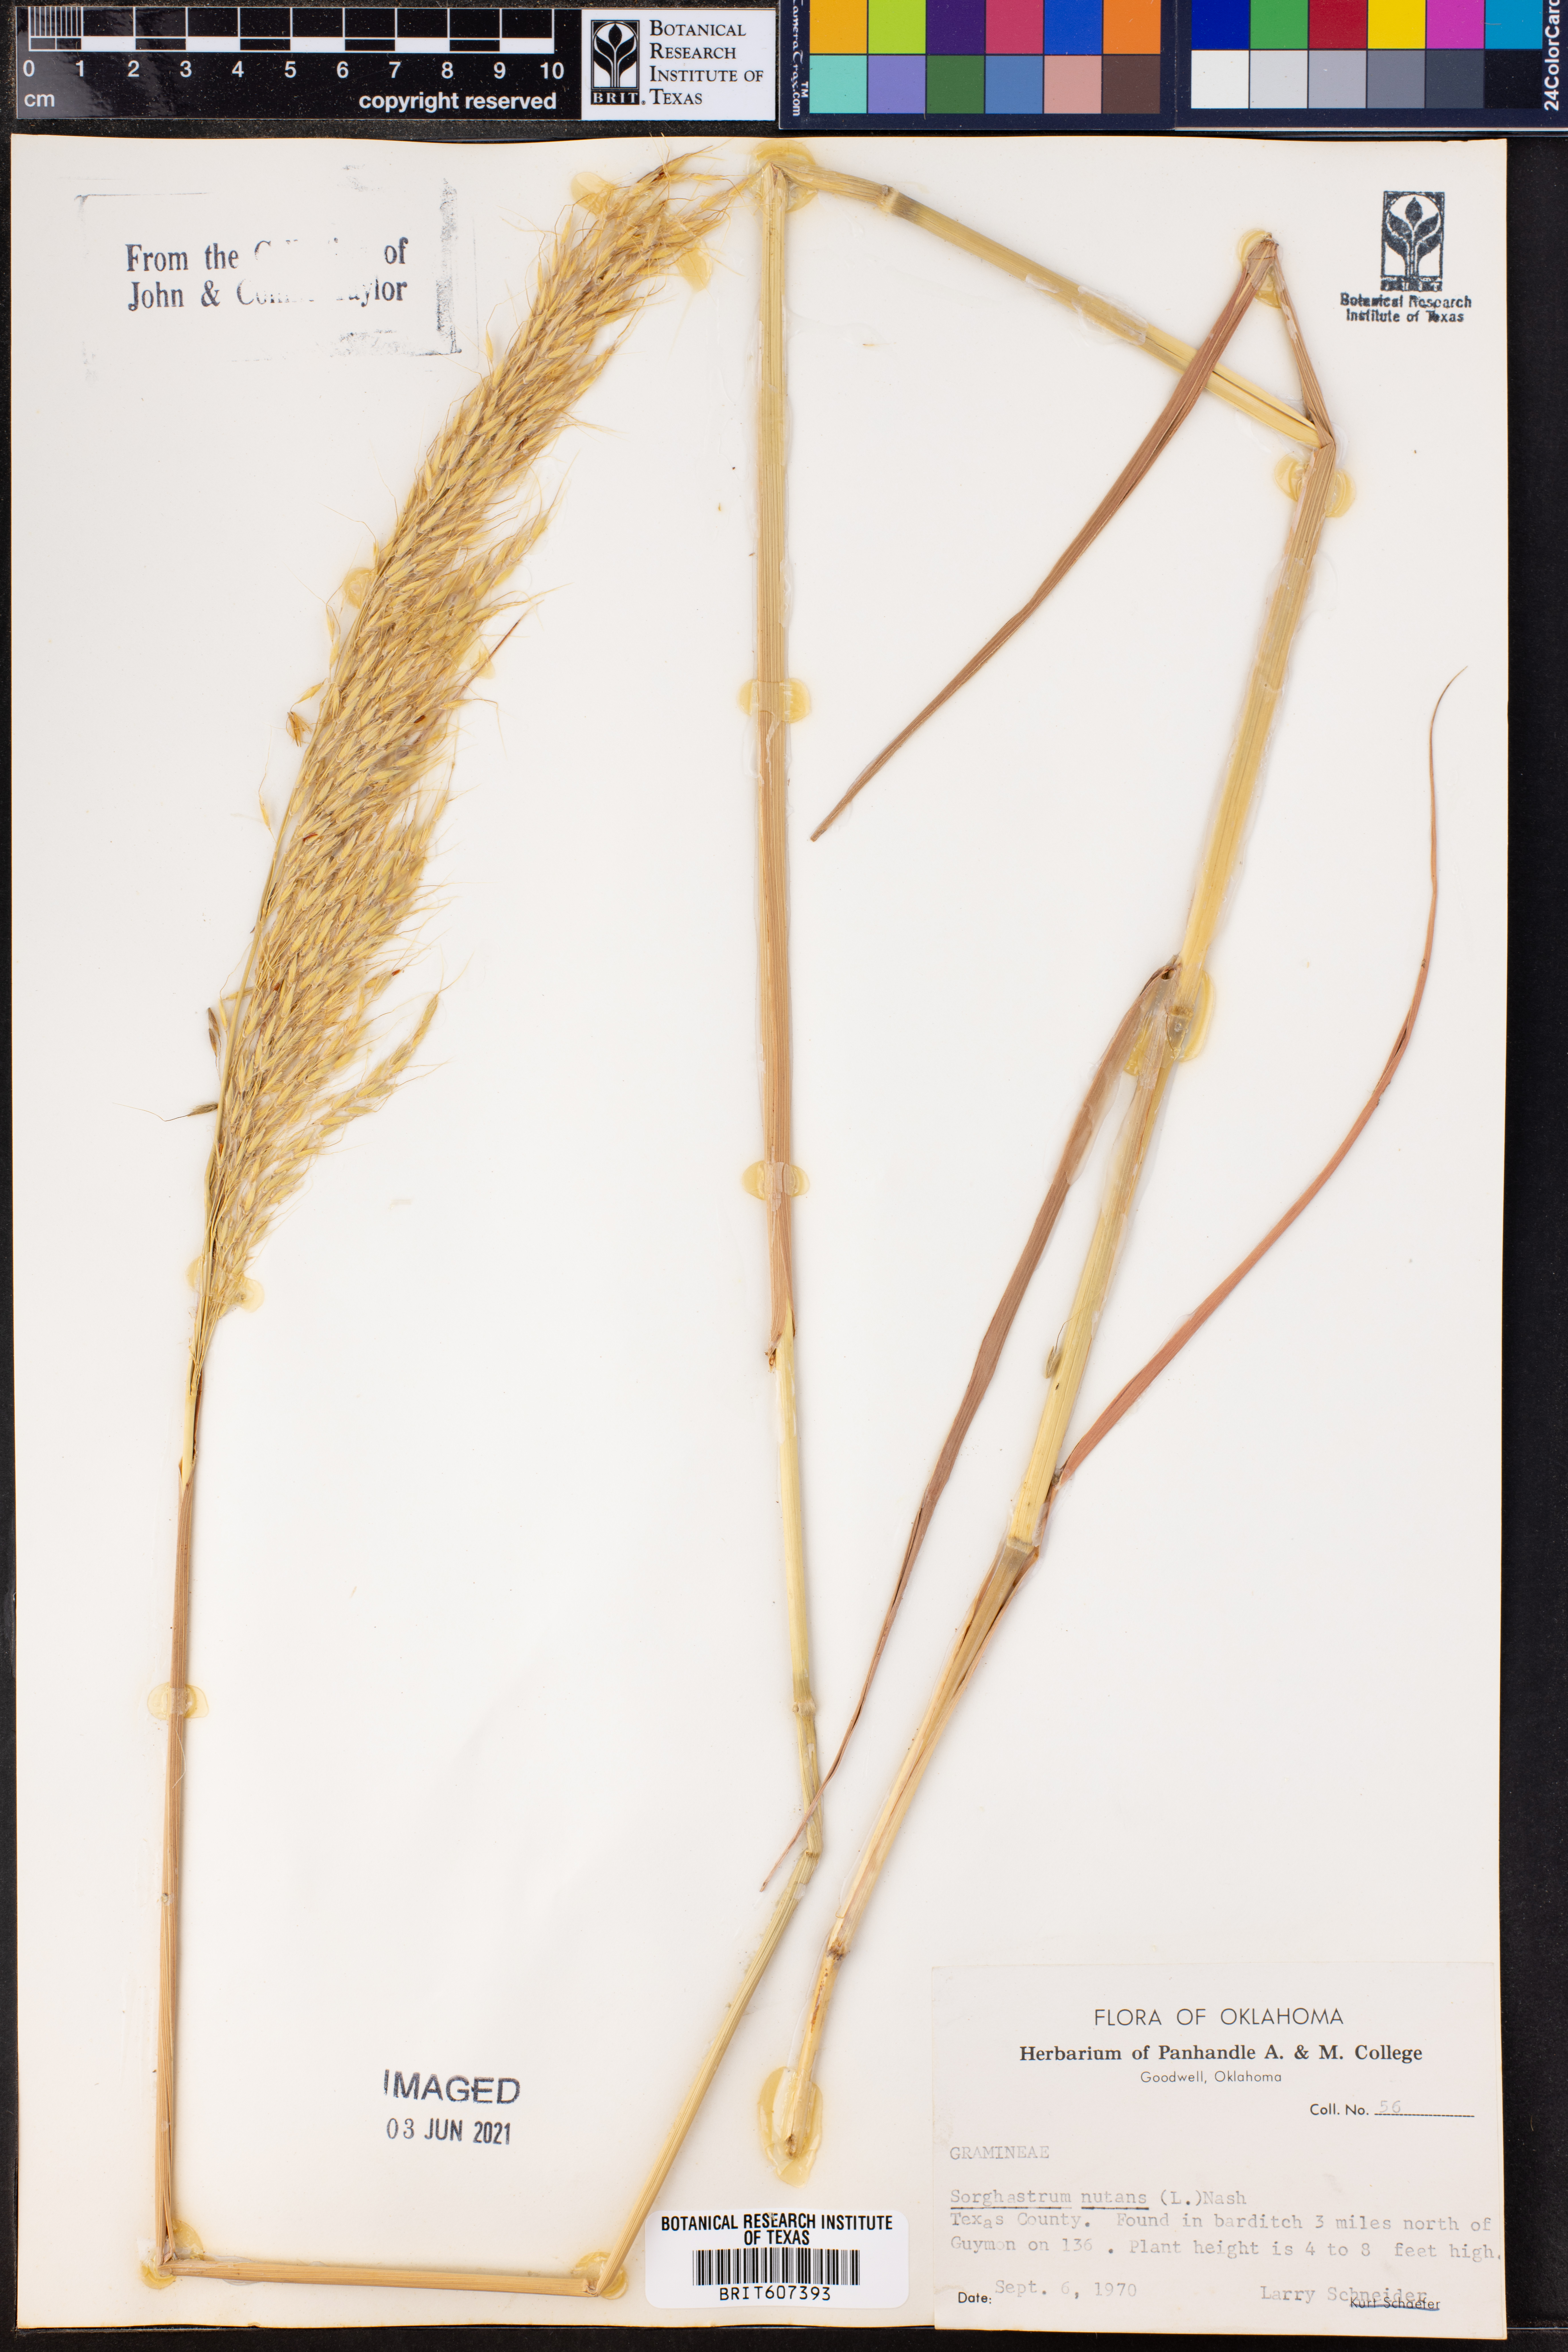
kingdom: Plantae
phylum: Tracheophyta
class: Liliopsida
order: Poales
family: Poaceae
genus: Sorghastrum
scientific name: Sorghastrum nutans
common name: Indian grass
